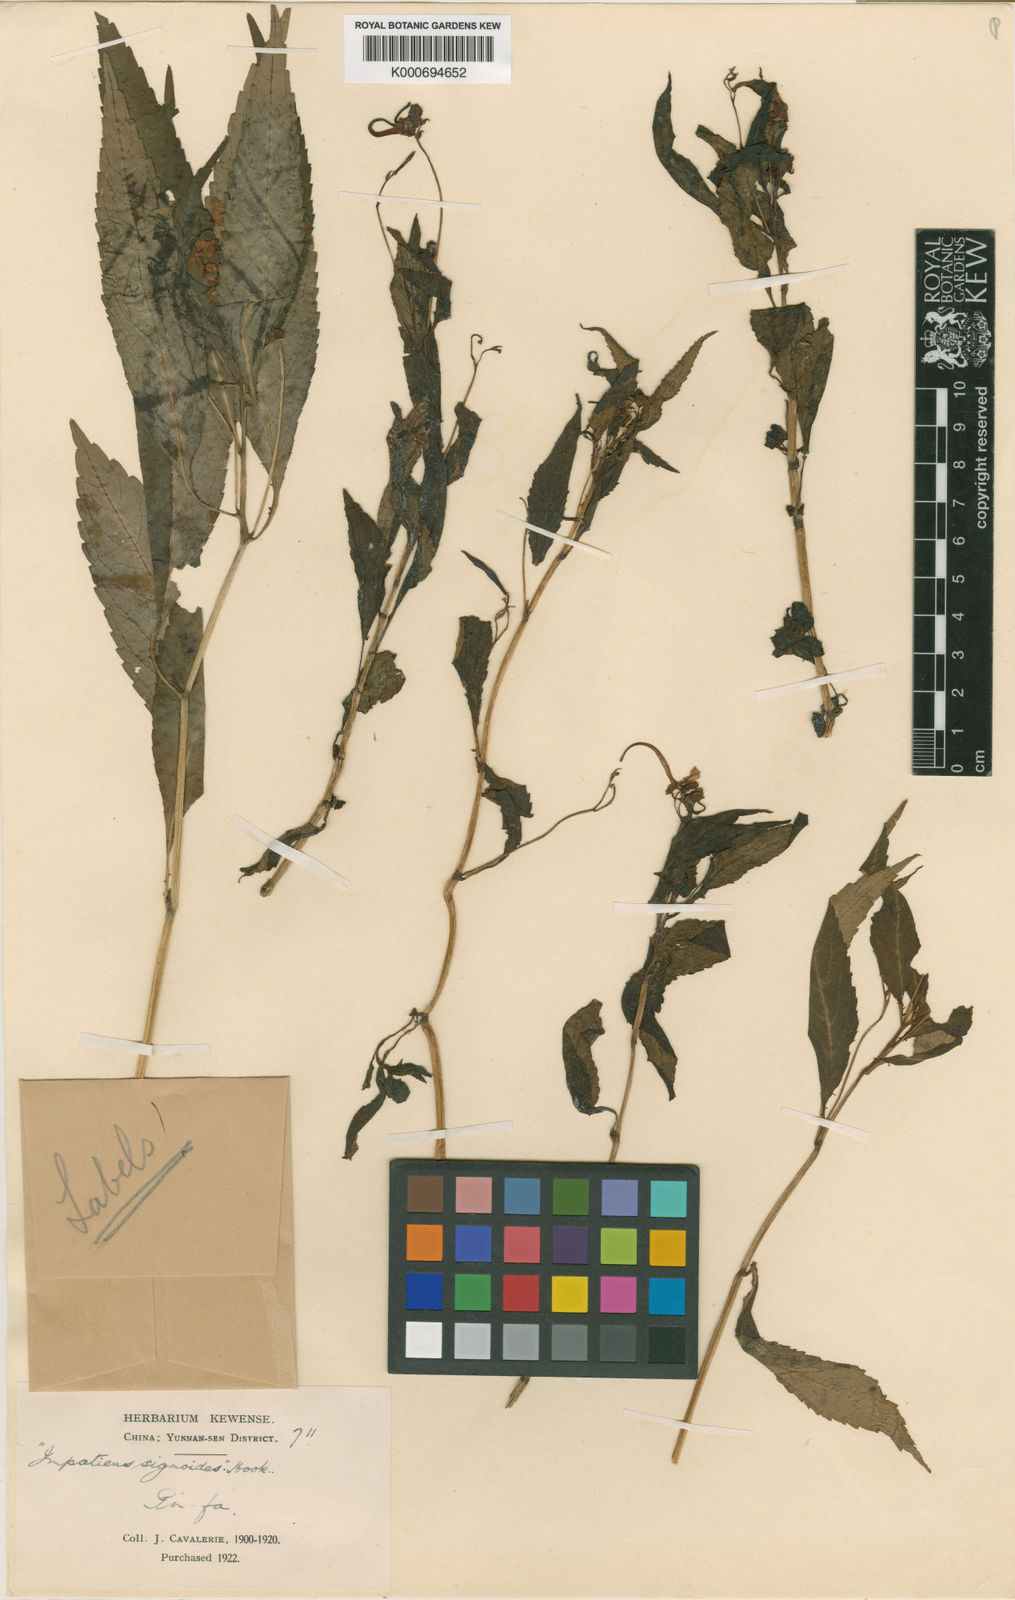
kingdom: Plantae
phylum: Tracheophyta
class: Magnoliopsida
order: Ericales
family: Balsaminaceae
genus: Impatiens
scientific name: Impatiens
